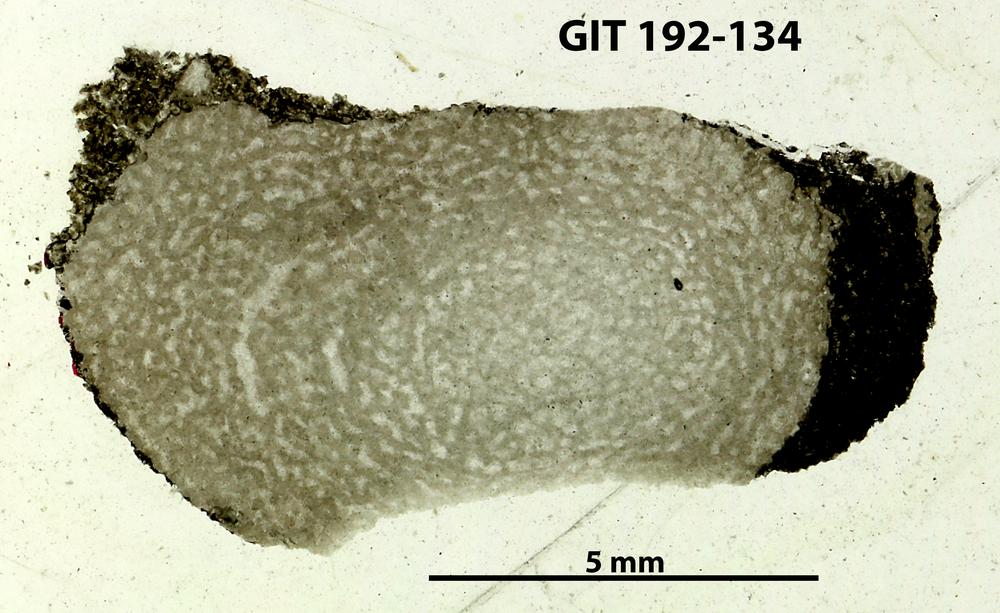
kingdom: Animalia
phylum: Porifera
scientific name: Porifera
